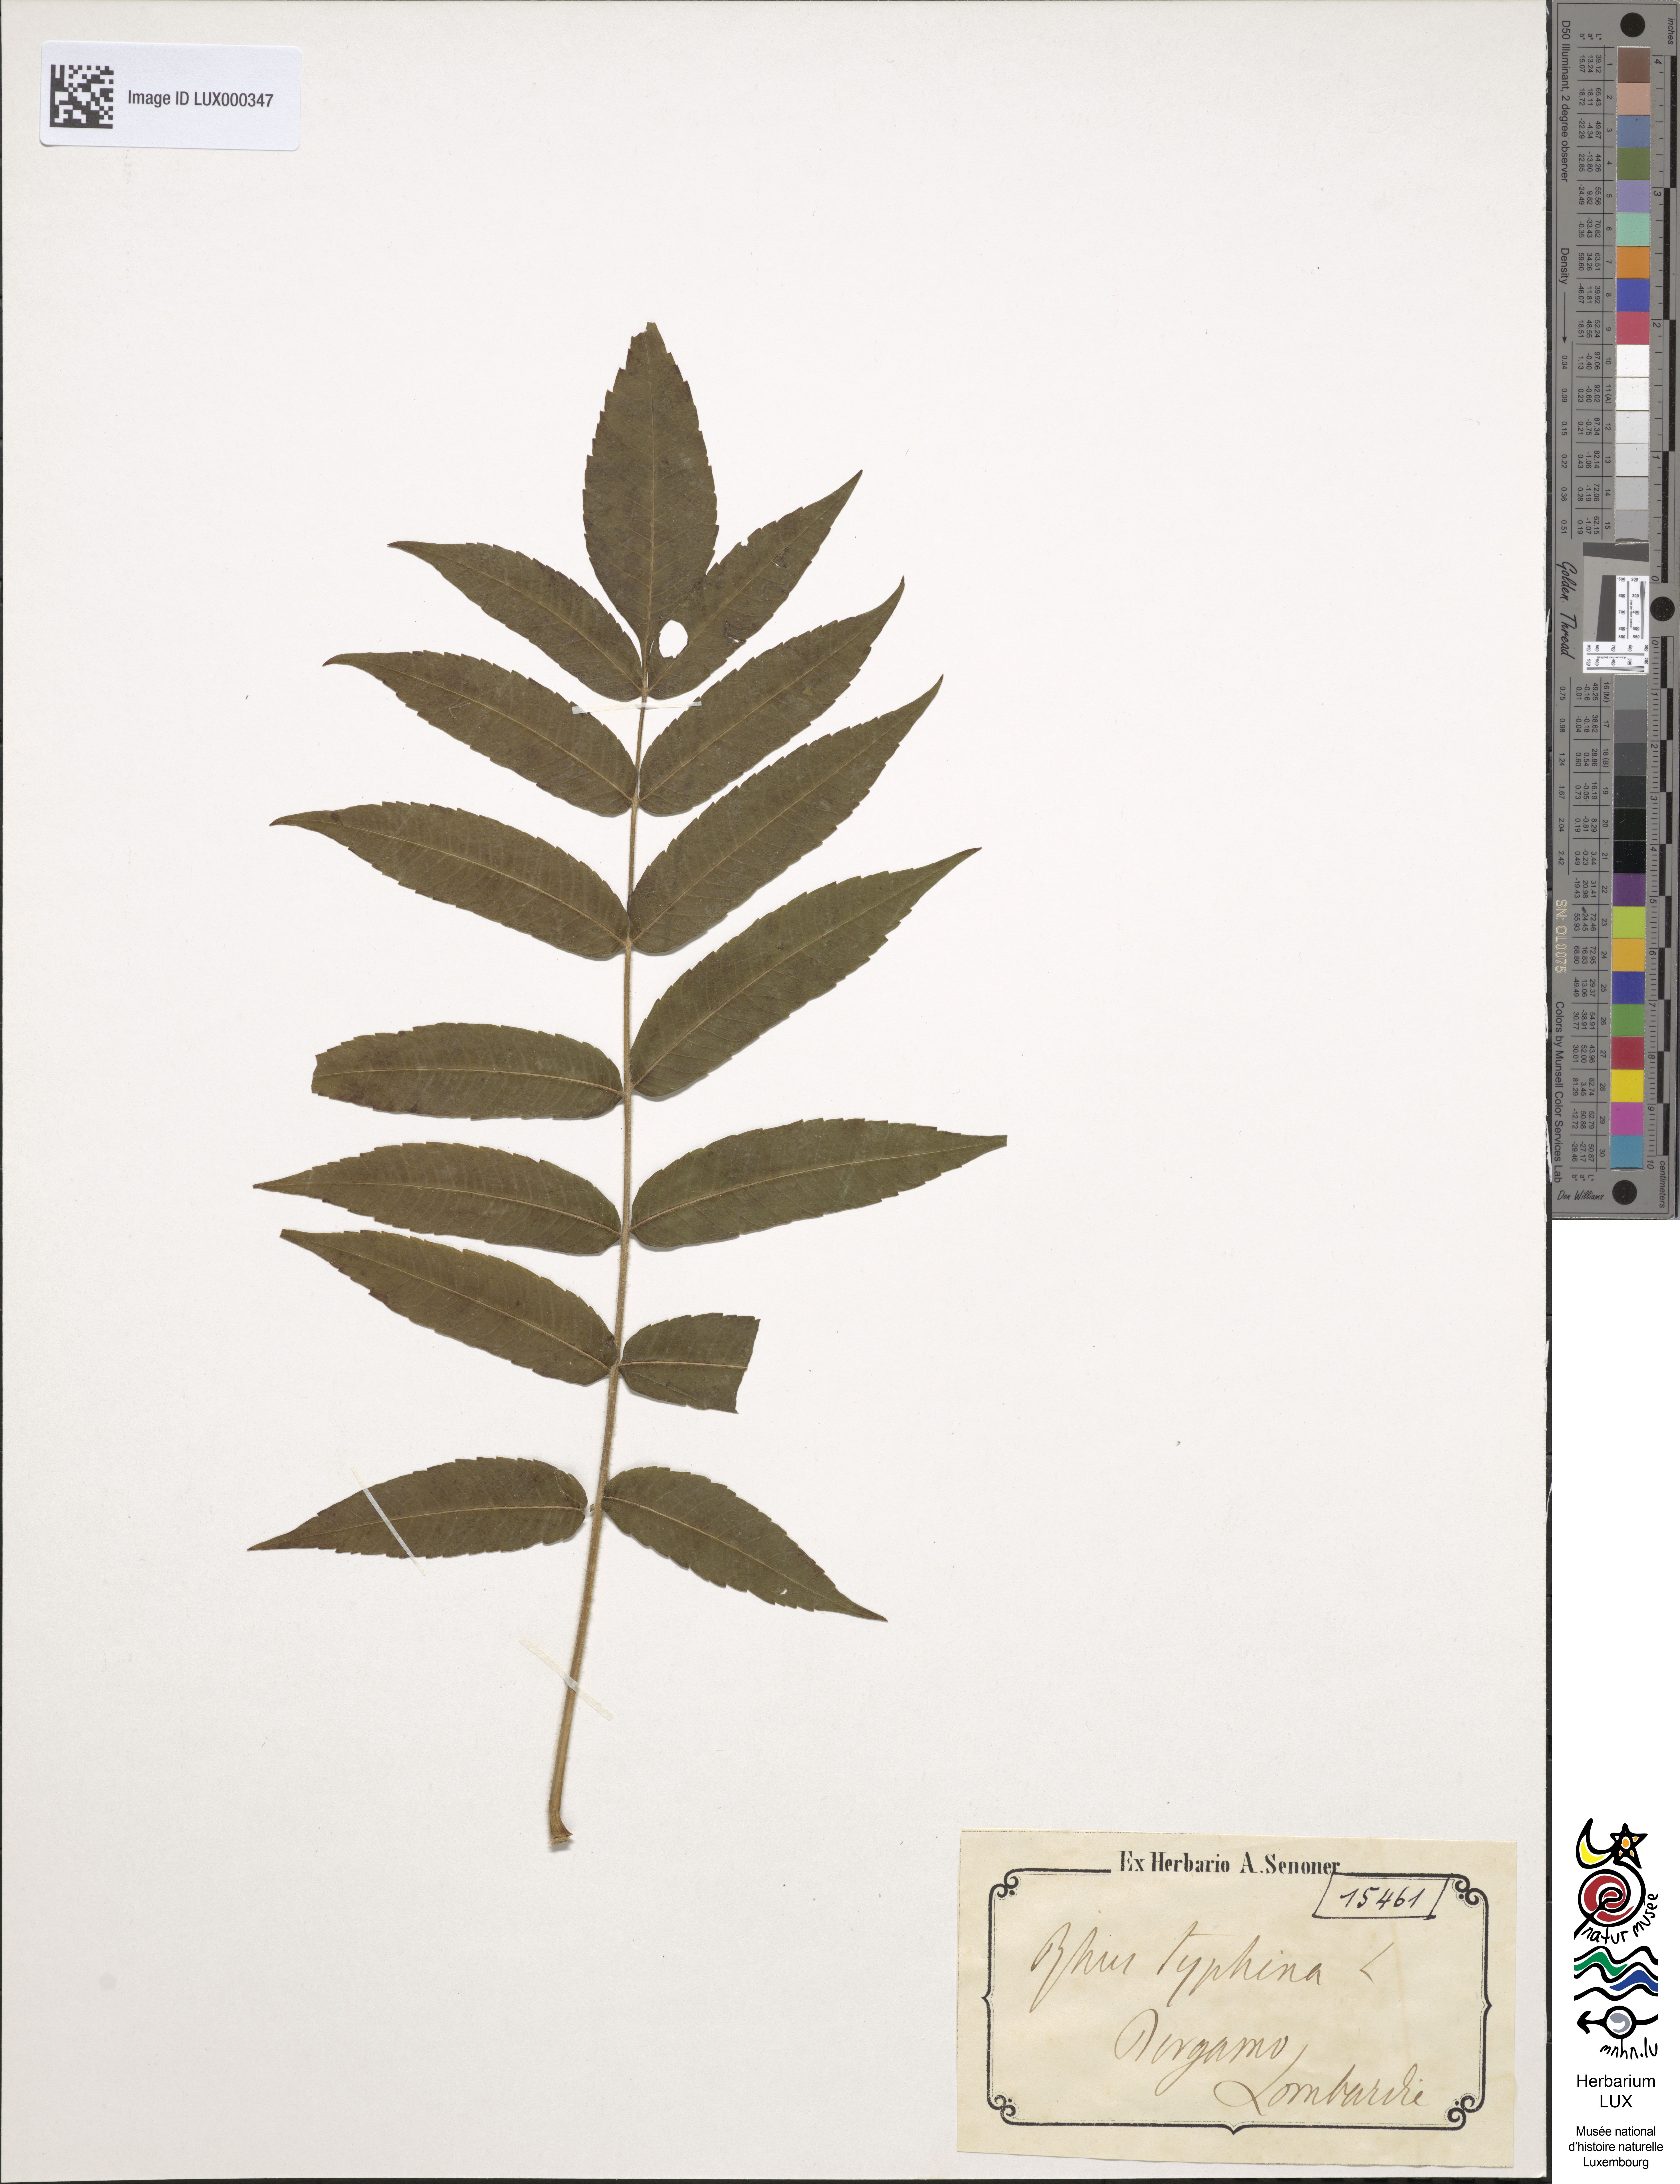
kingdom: Plantae
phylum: Tracheophyta
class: Magnoliopsida
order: Sapindales
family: Anacardiaceae
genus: Rhus
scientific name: Rhus typhina
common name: Staghorn sumac
